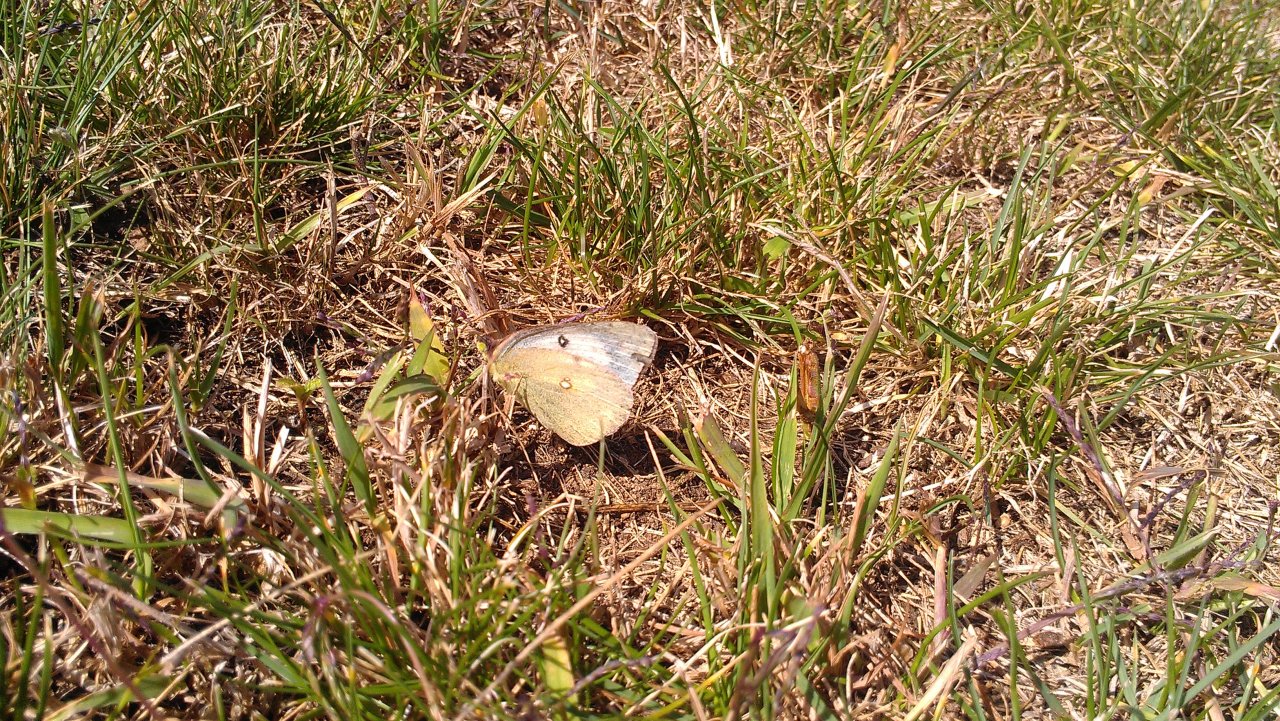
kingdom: Animalia
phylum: Arthropoda
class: Insecta
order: Lepidoptera
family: Pieridae
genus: Colias
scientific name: Colias philodice
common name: Clouded Sulphur
